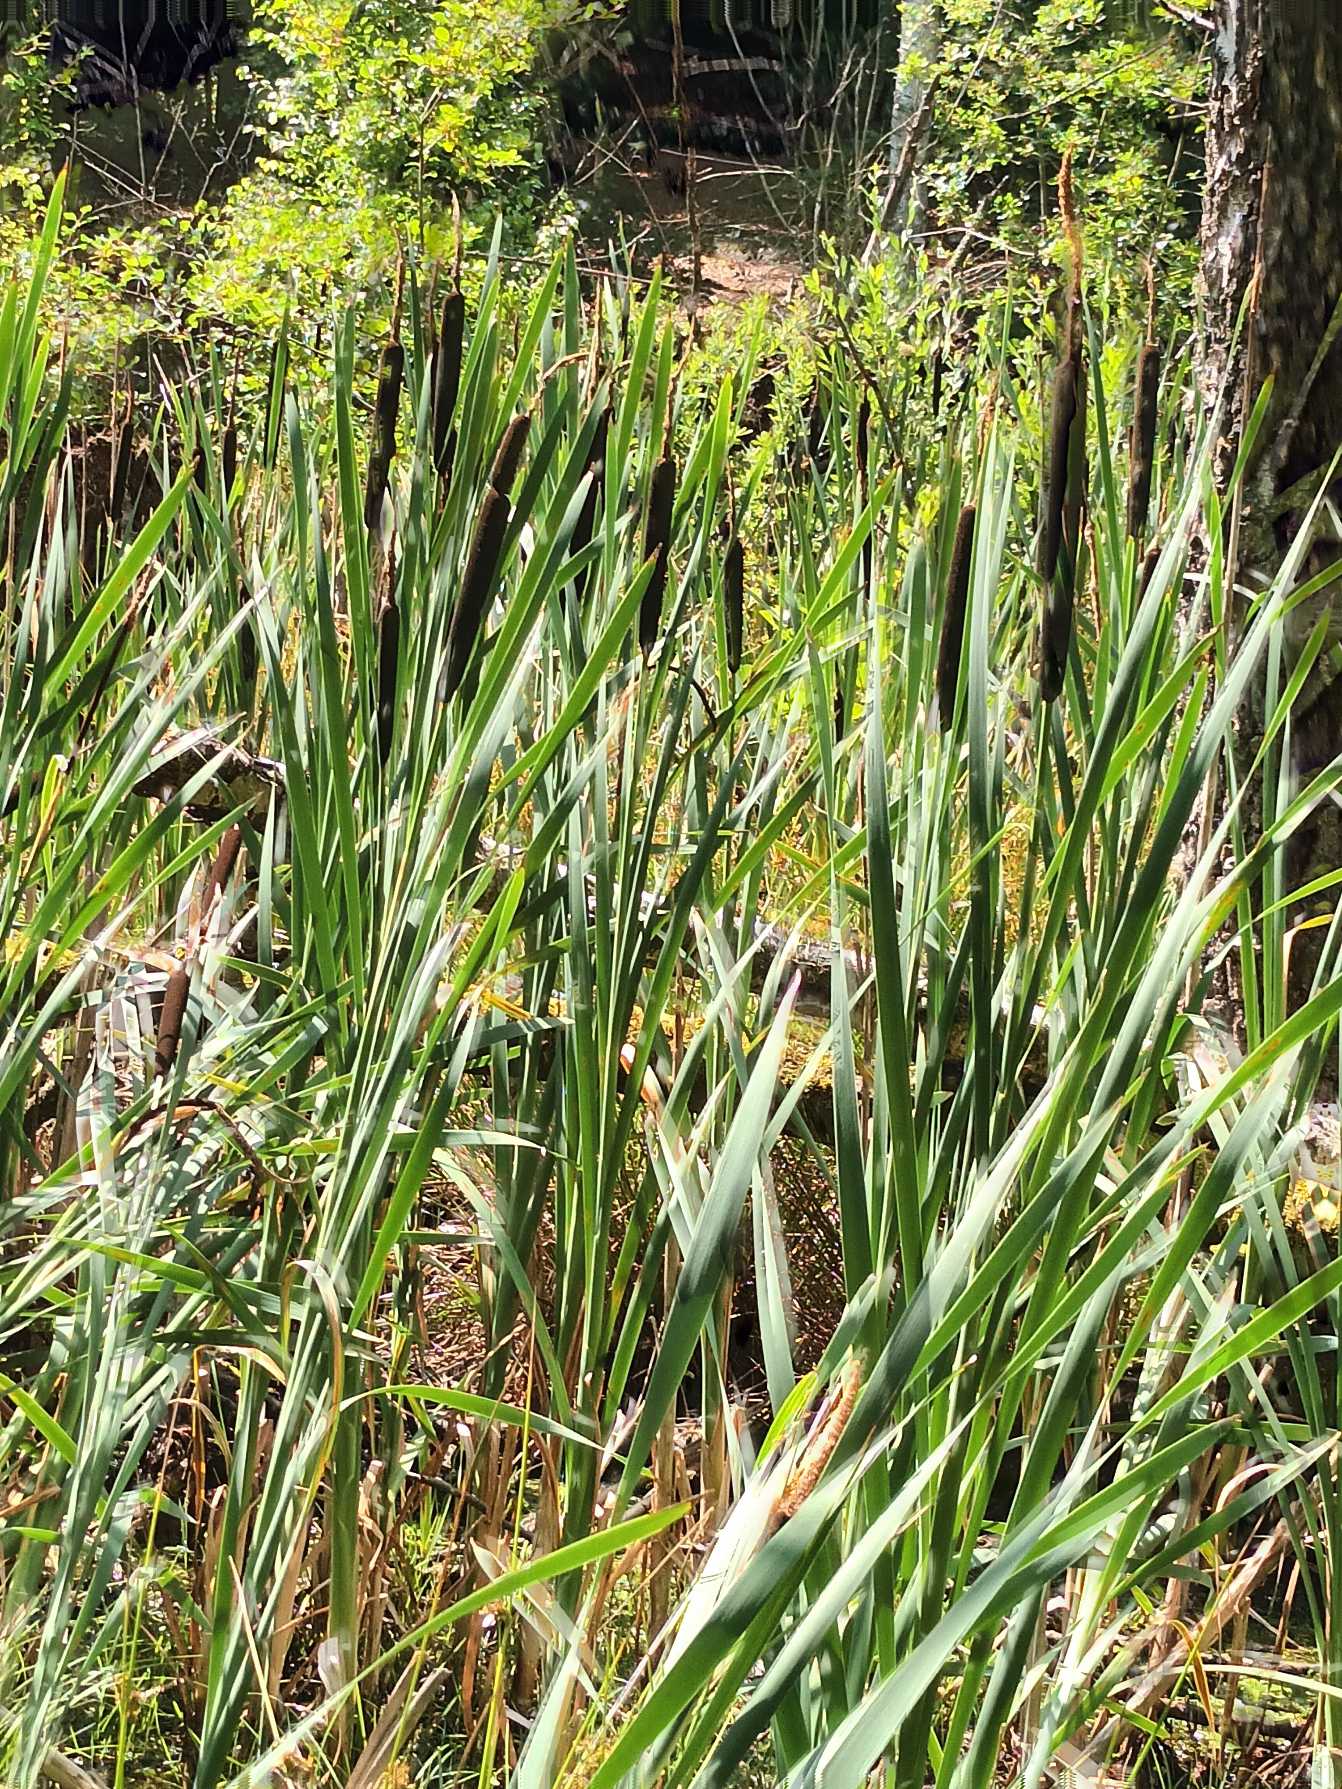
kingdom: Plantae
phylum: Tracheophyta
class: Liliopsida
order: Poales
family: Typhaceae
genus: Typha
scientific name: Typha latifolia
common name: Bredbladet dunhammer
